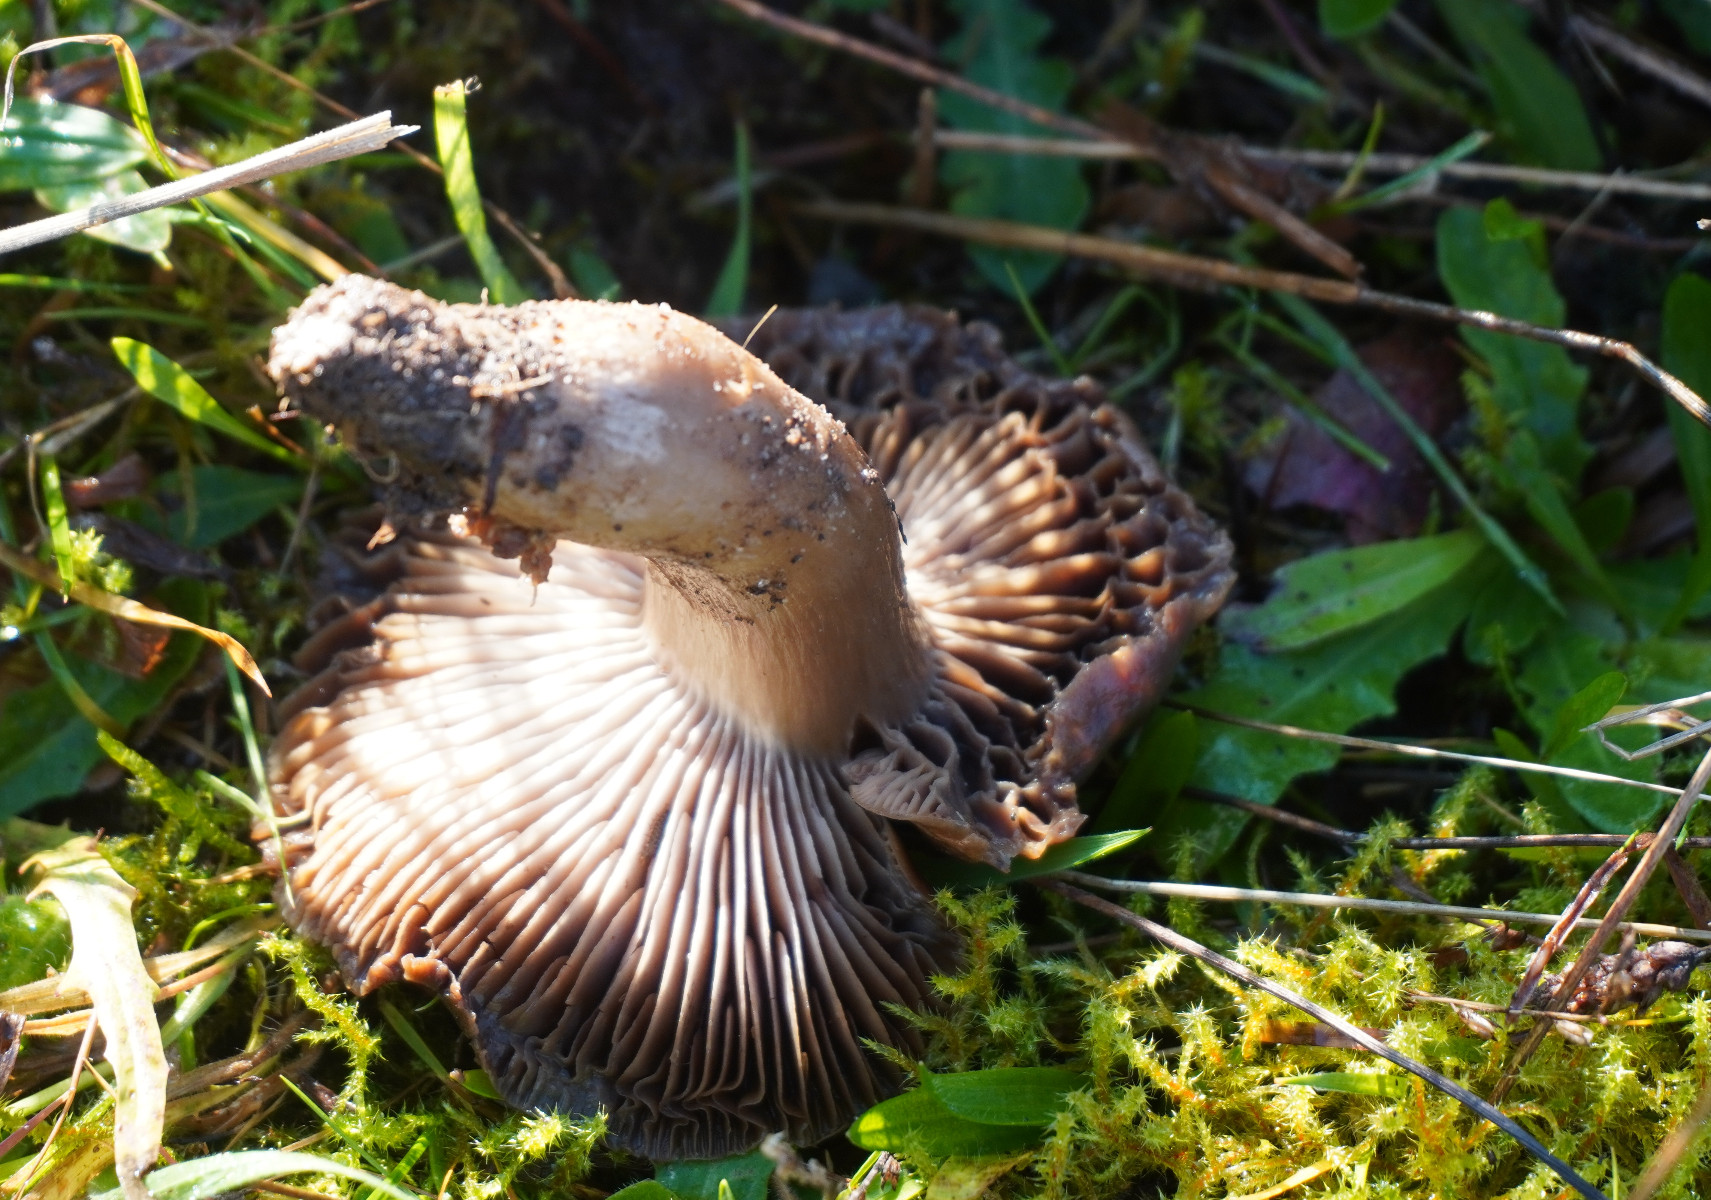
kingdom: Fungi
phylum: Basidiomycota
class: Agaricomycetes
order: Agaricales
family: Tricholomataceae
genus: Pseudotricholoma
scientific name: Pseudotricholoma metapodium
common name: rødmende alfehat
